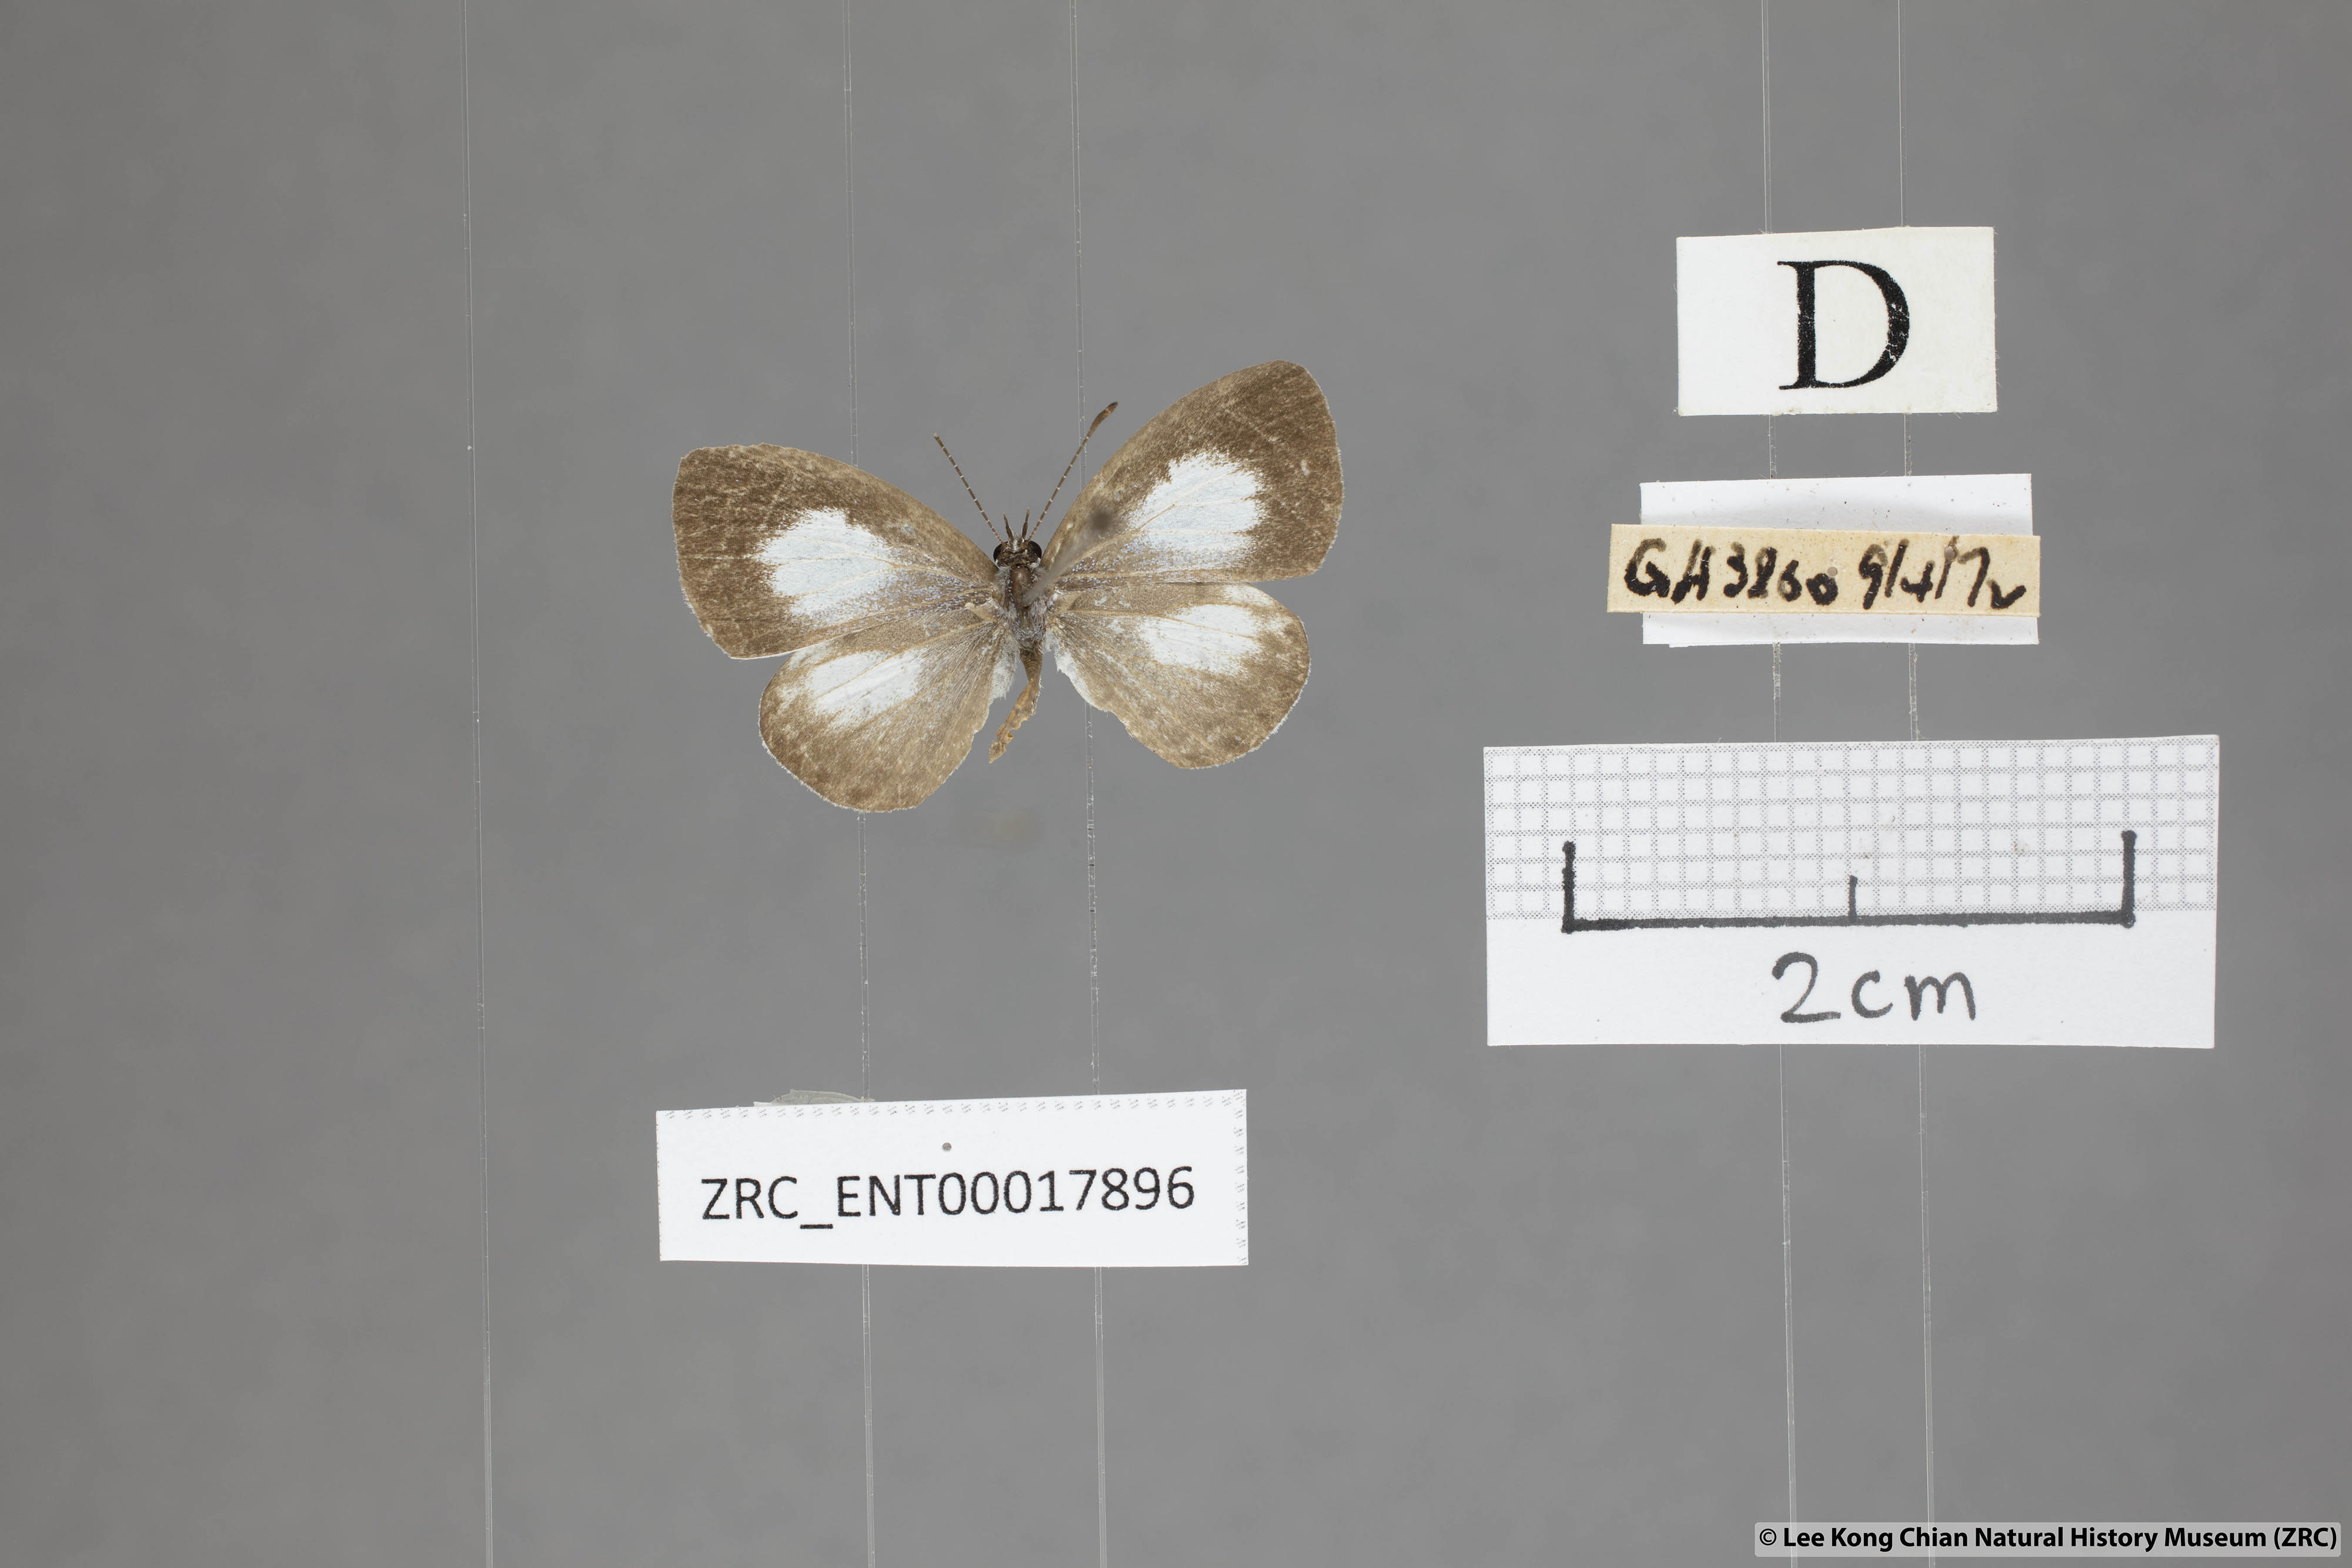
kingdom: Animalia
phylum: Arthropoda
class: Insecta
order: Lepidoptera
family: Lycaenidae
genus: Oreolyce
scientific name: Oreolyce
